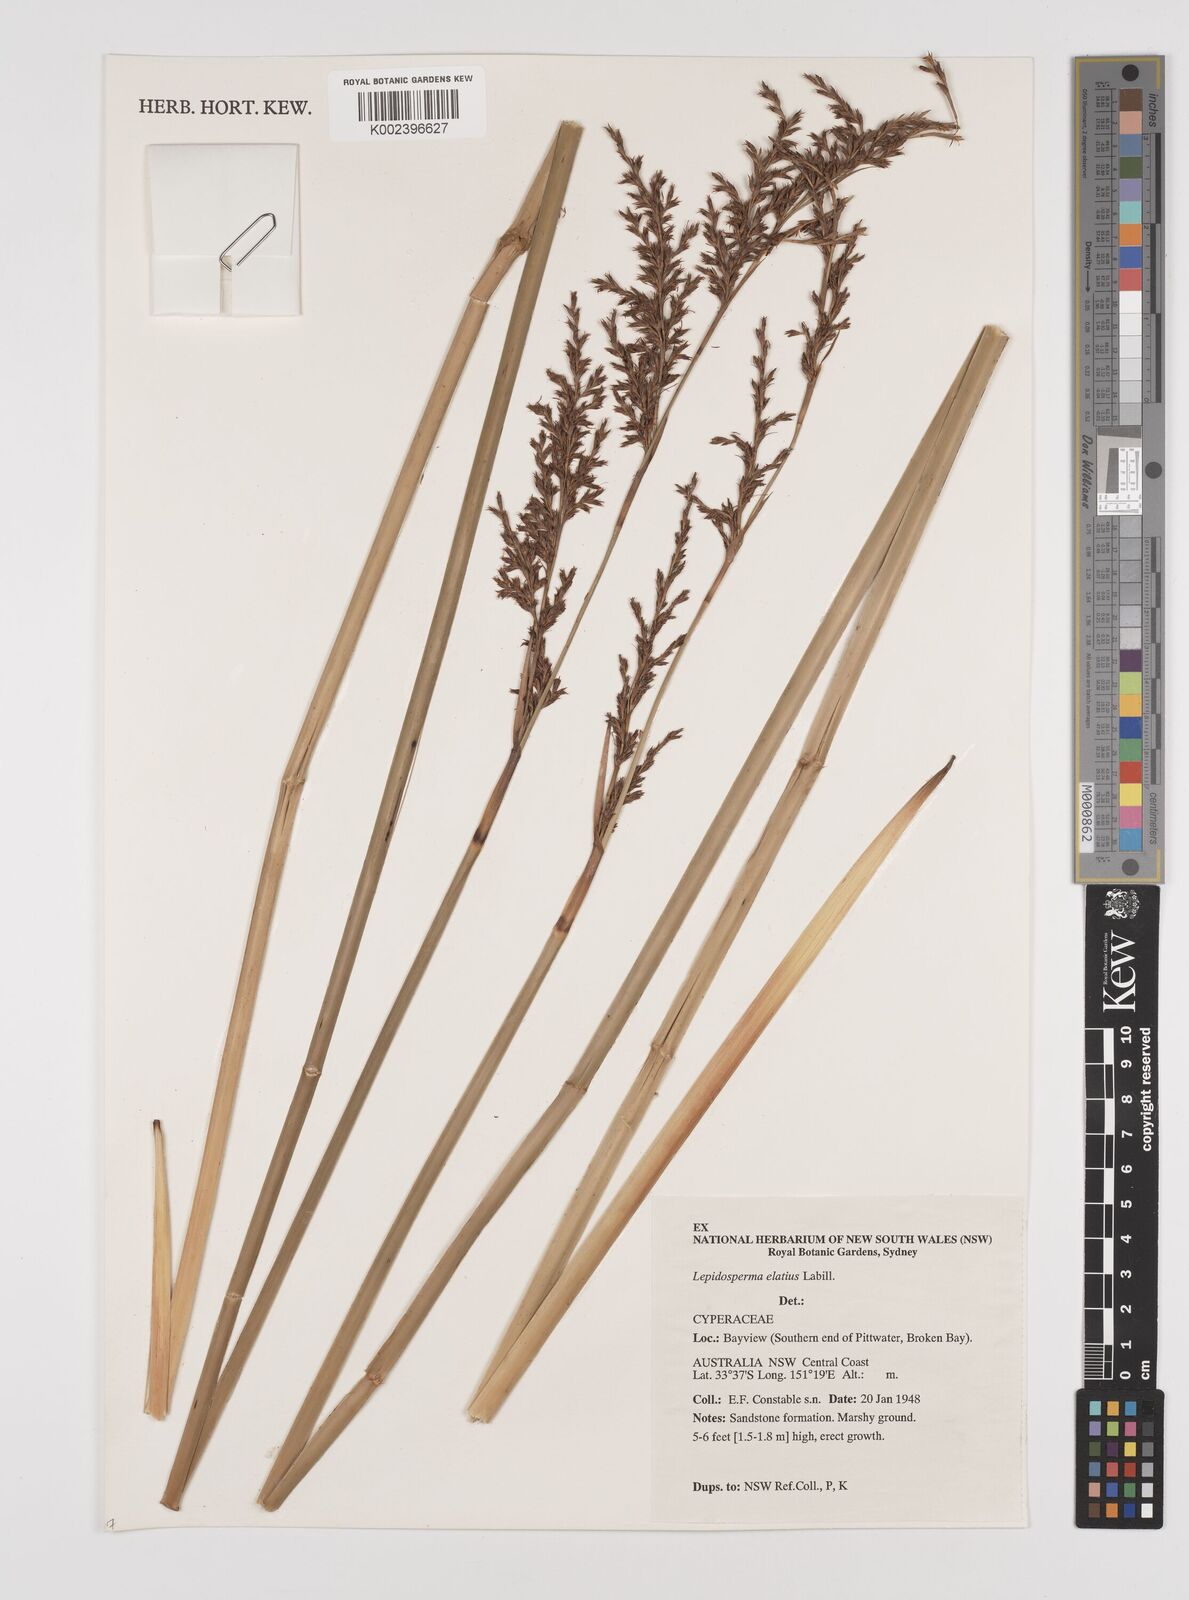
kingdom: Plantae
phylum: Tracheophyta
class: Liliopsida
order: Poales
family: Cyperaceae
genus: Lepidosperma
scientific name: Lepidosperma elatius
